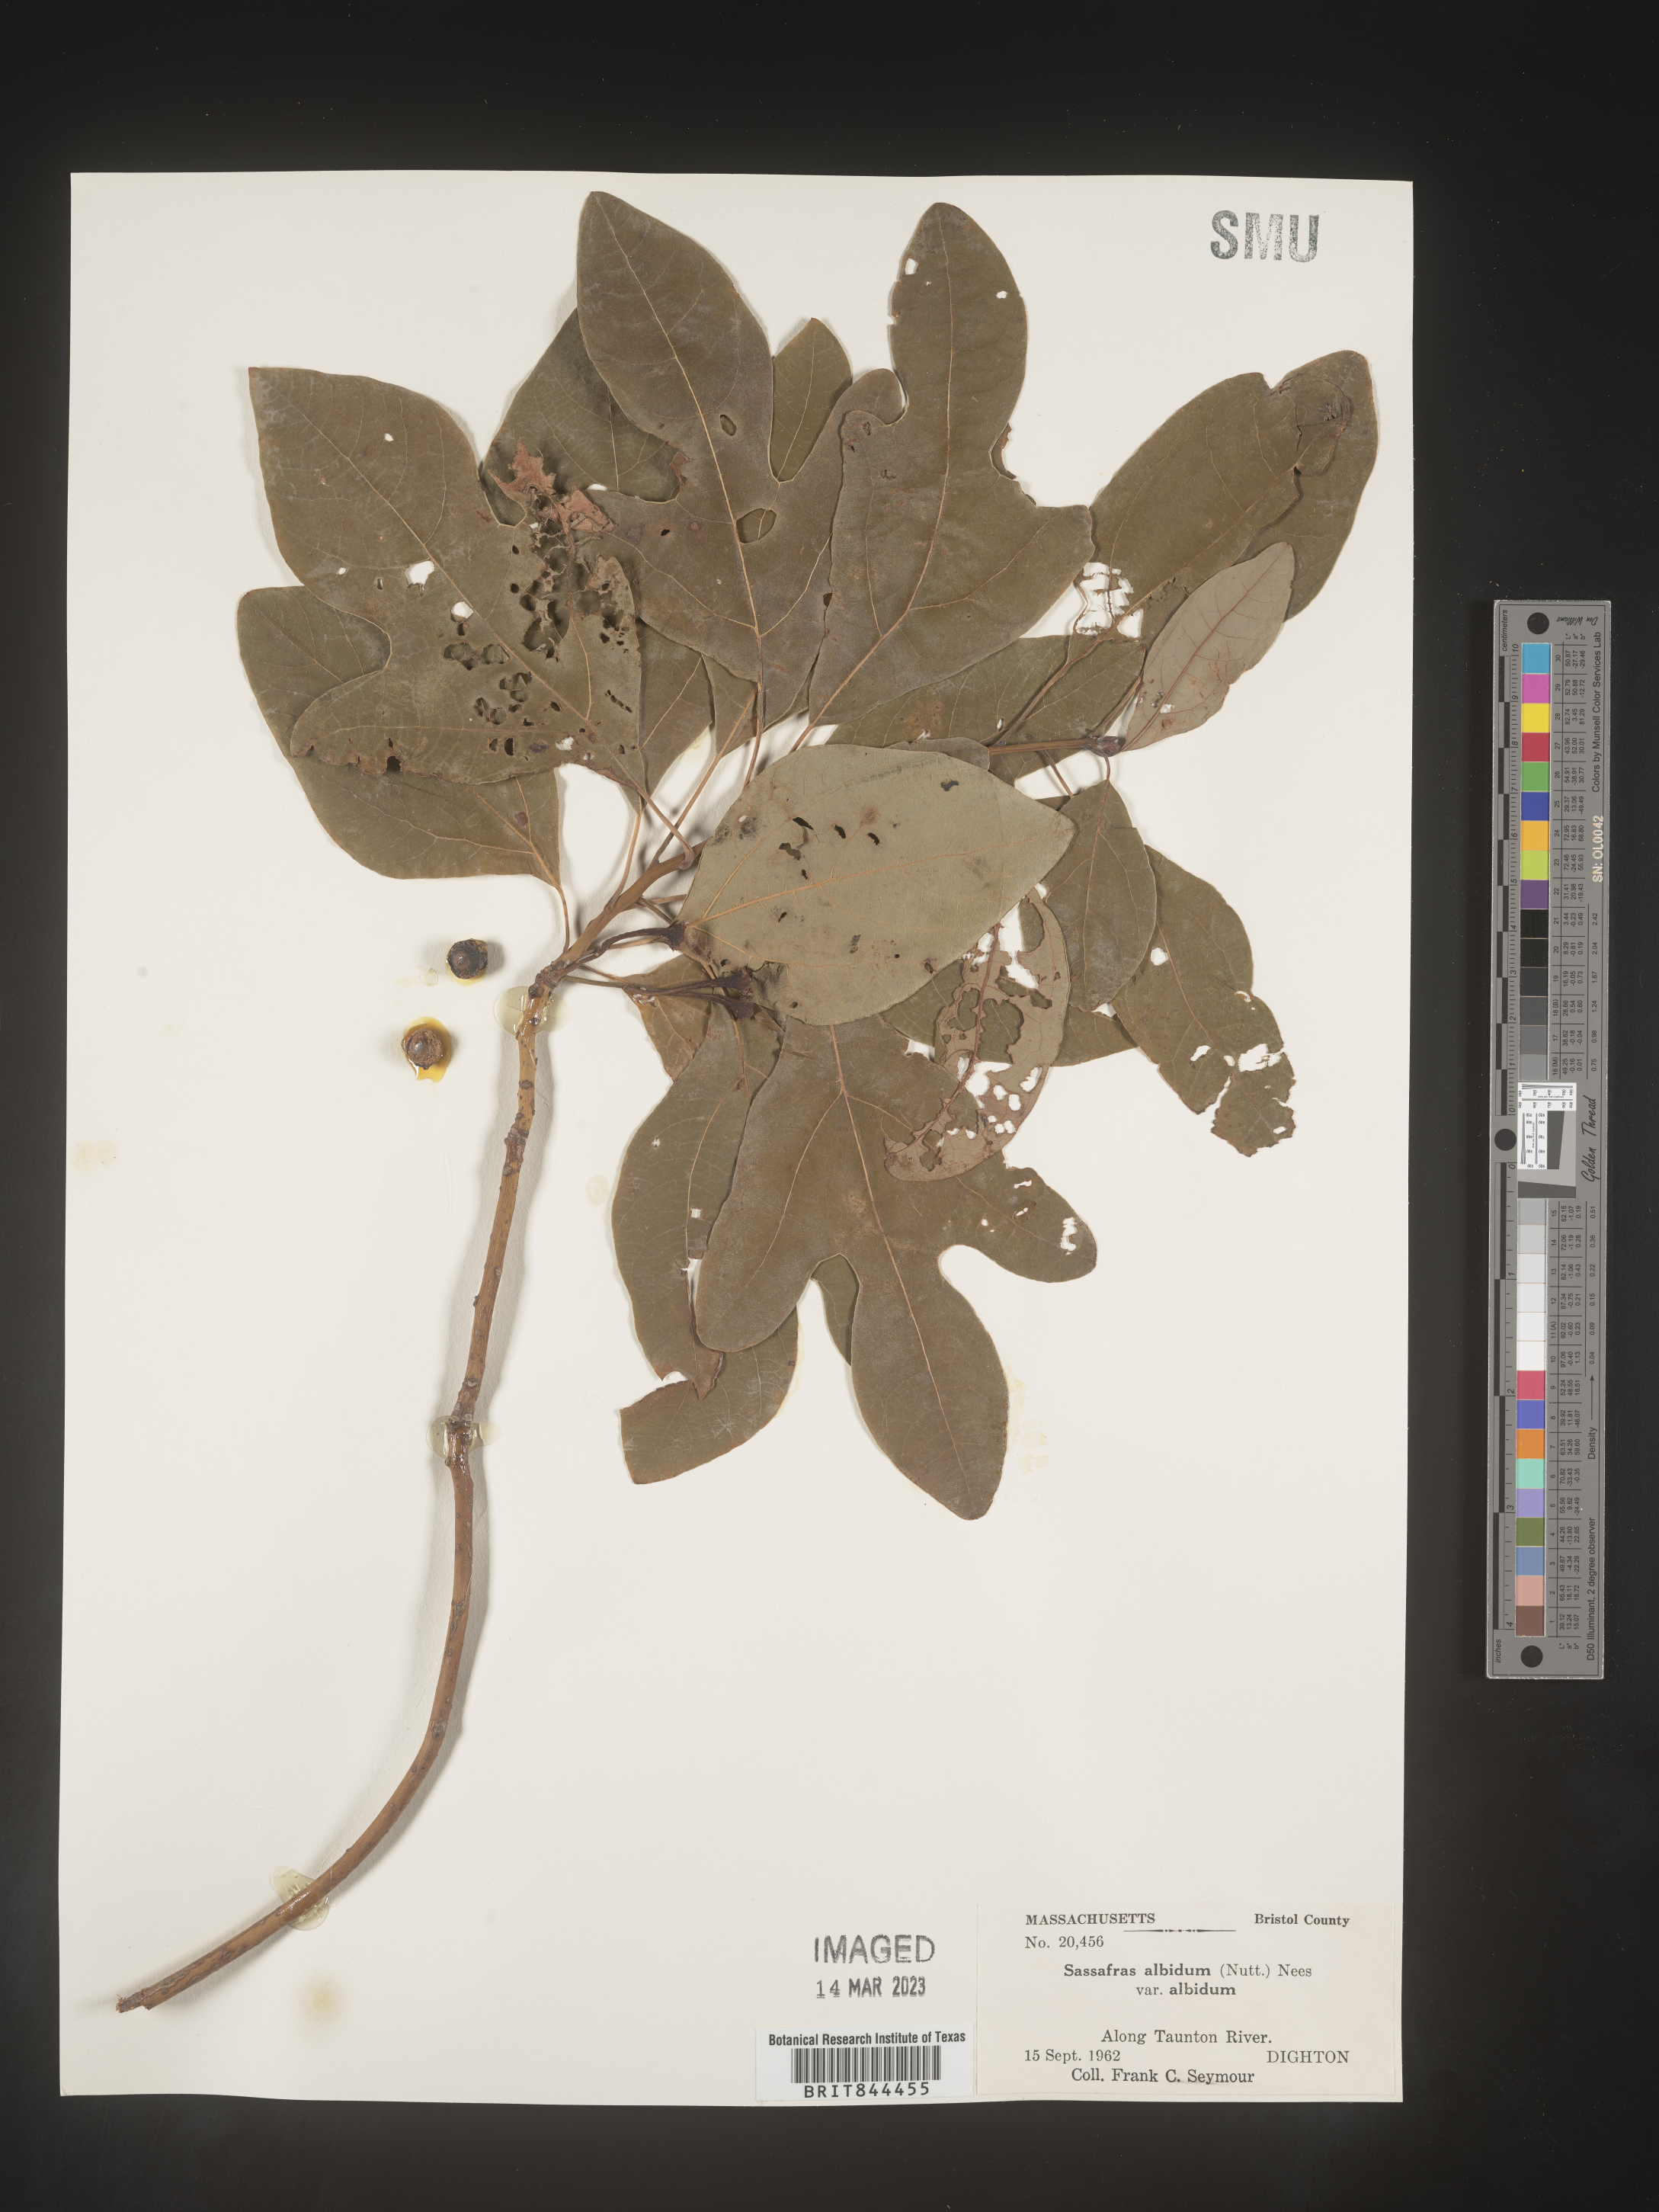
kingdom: Plantae
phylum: Tracheophyta
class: Magnoliopsida
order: Laurales
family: Lauraceae
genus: Sassafras
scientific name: Sassafras albidum
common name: Sassafras
